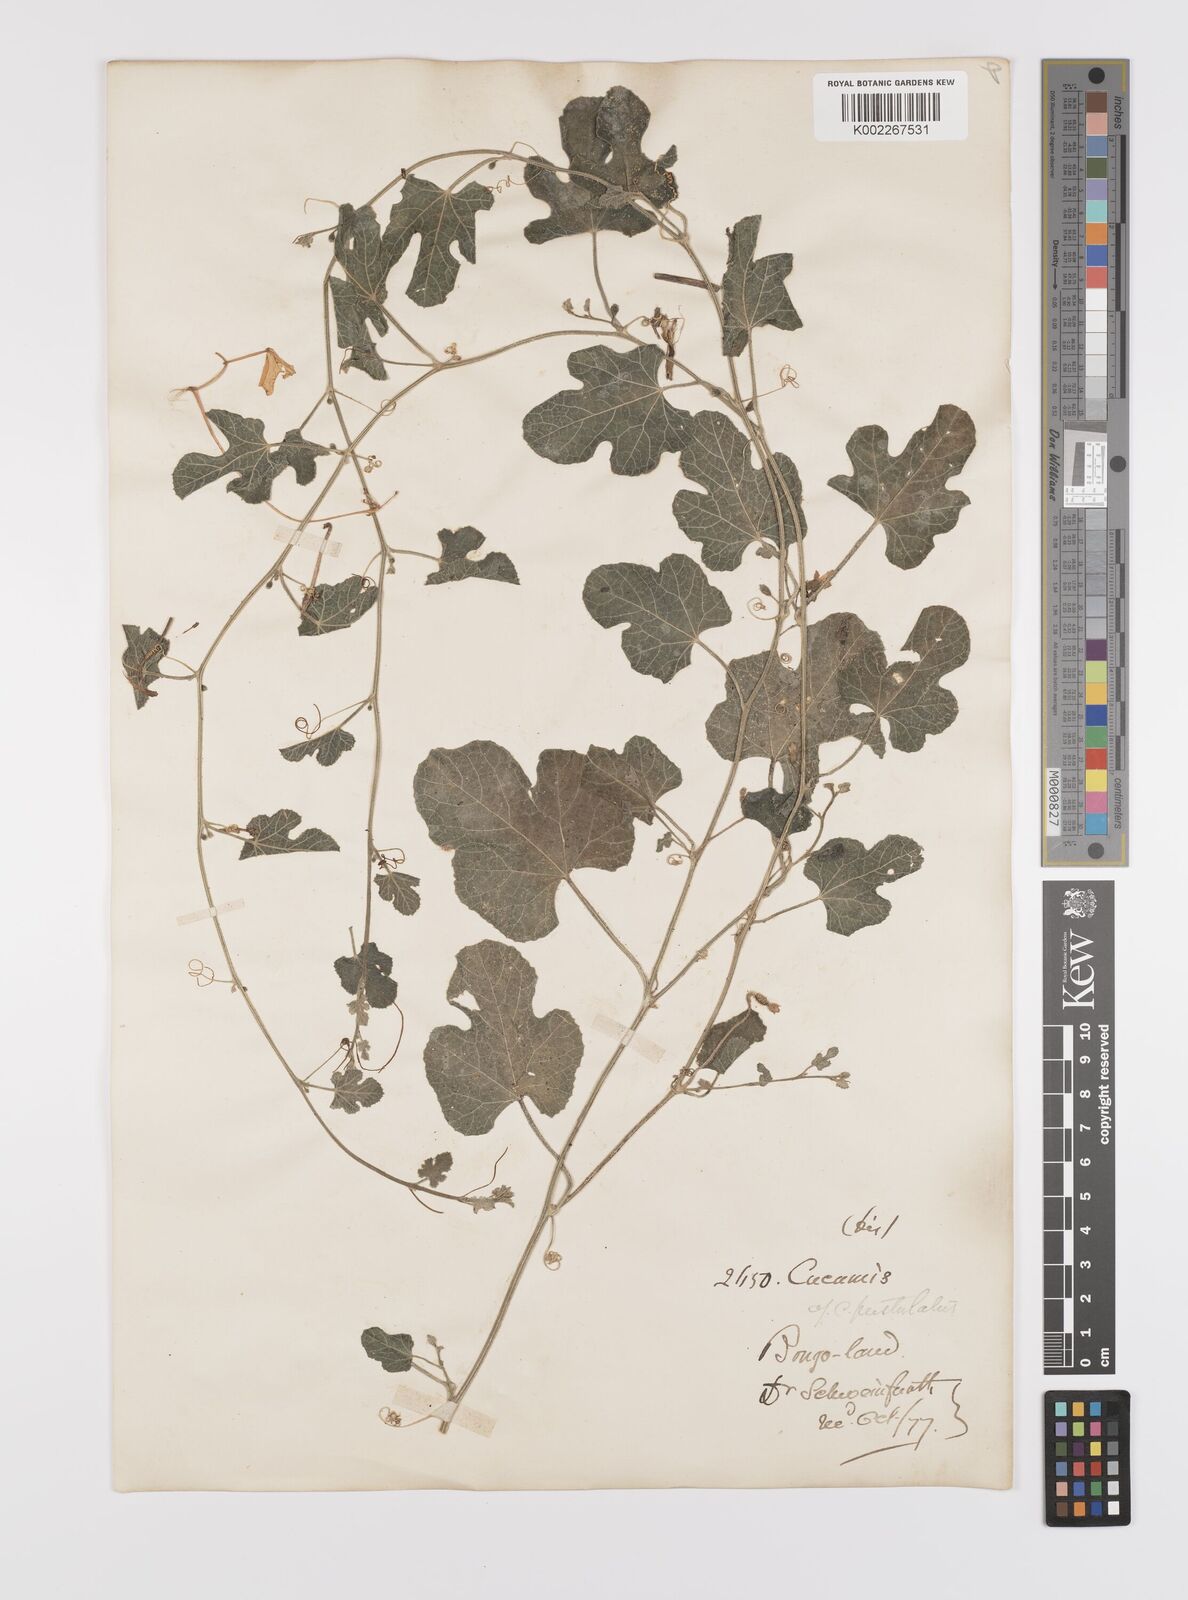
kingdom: Plantae
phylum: Tracheophyta
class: Magnoliopsida
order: Cucurbitales
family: Cucurbitaceae
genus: Cucumis
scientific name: Cucumis pustulatus
